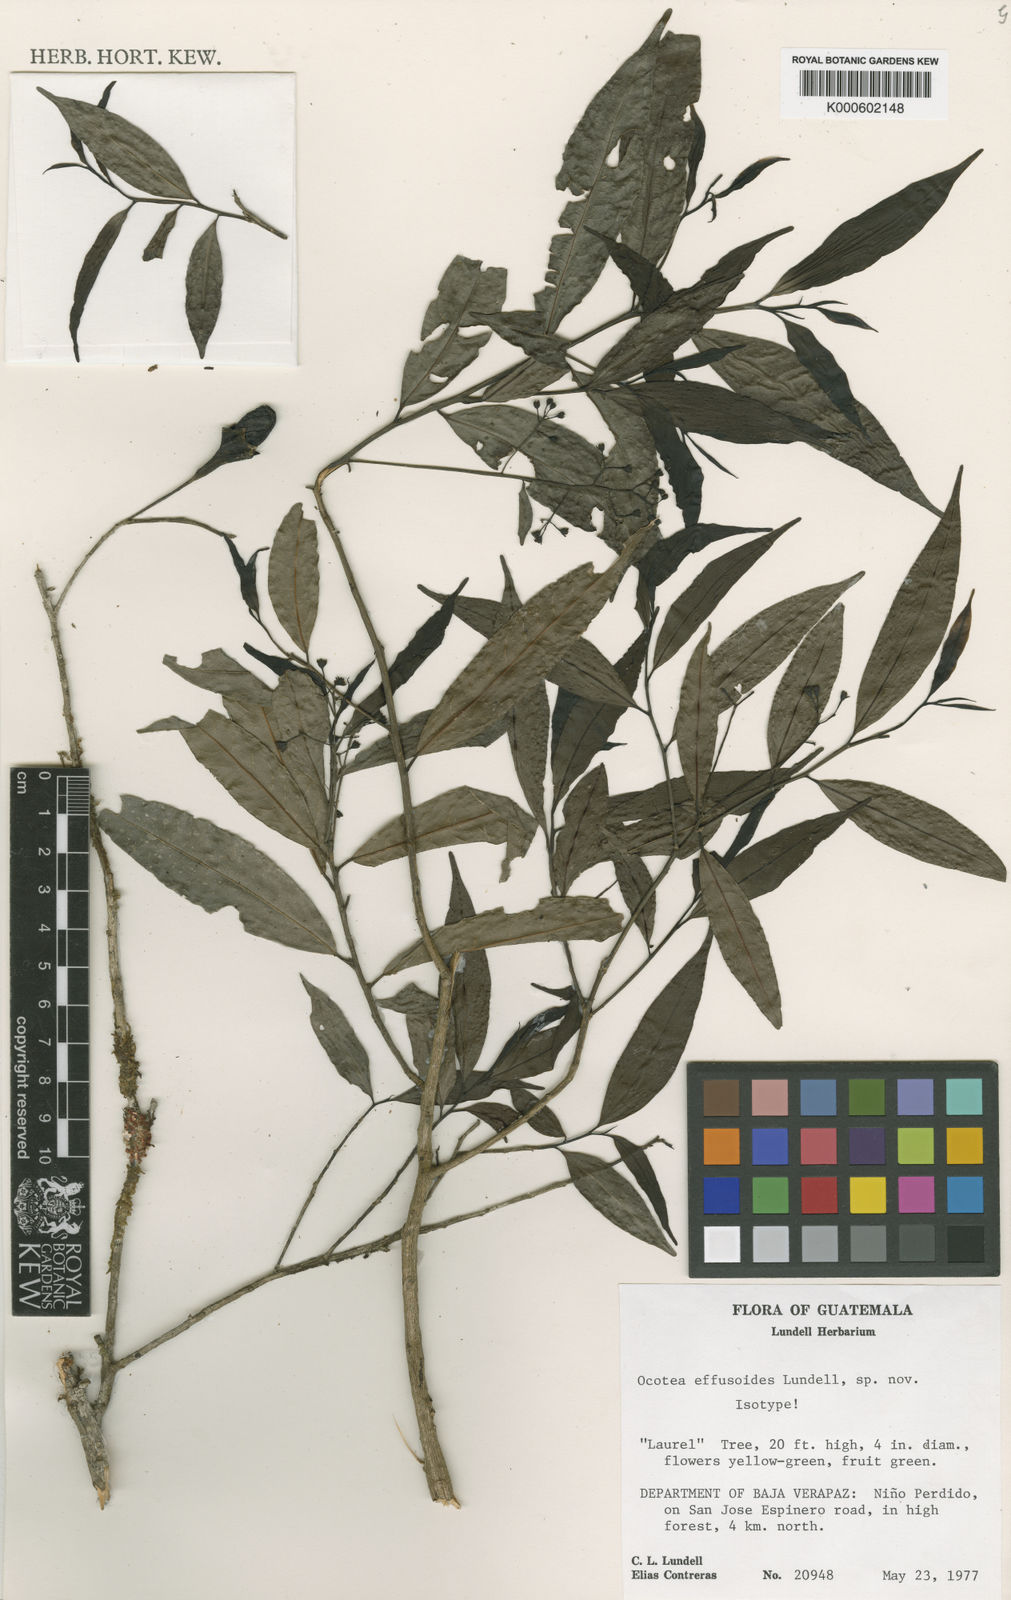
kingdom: Plantae
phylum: Tracheophyta
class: Magnoliopsida
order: Laurales
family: Lauraceae
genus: Ocotea
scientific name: Ocotea tenera
